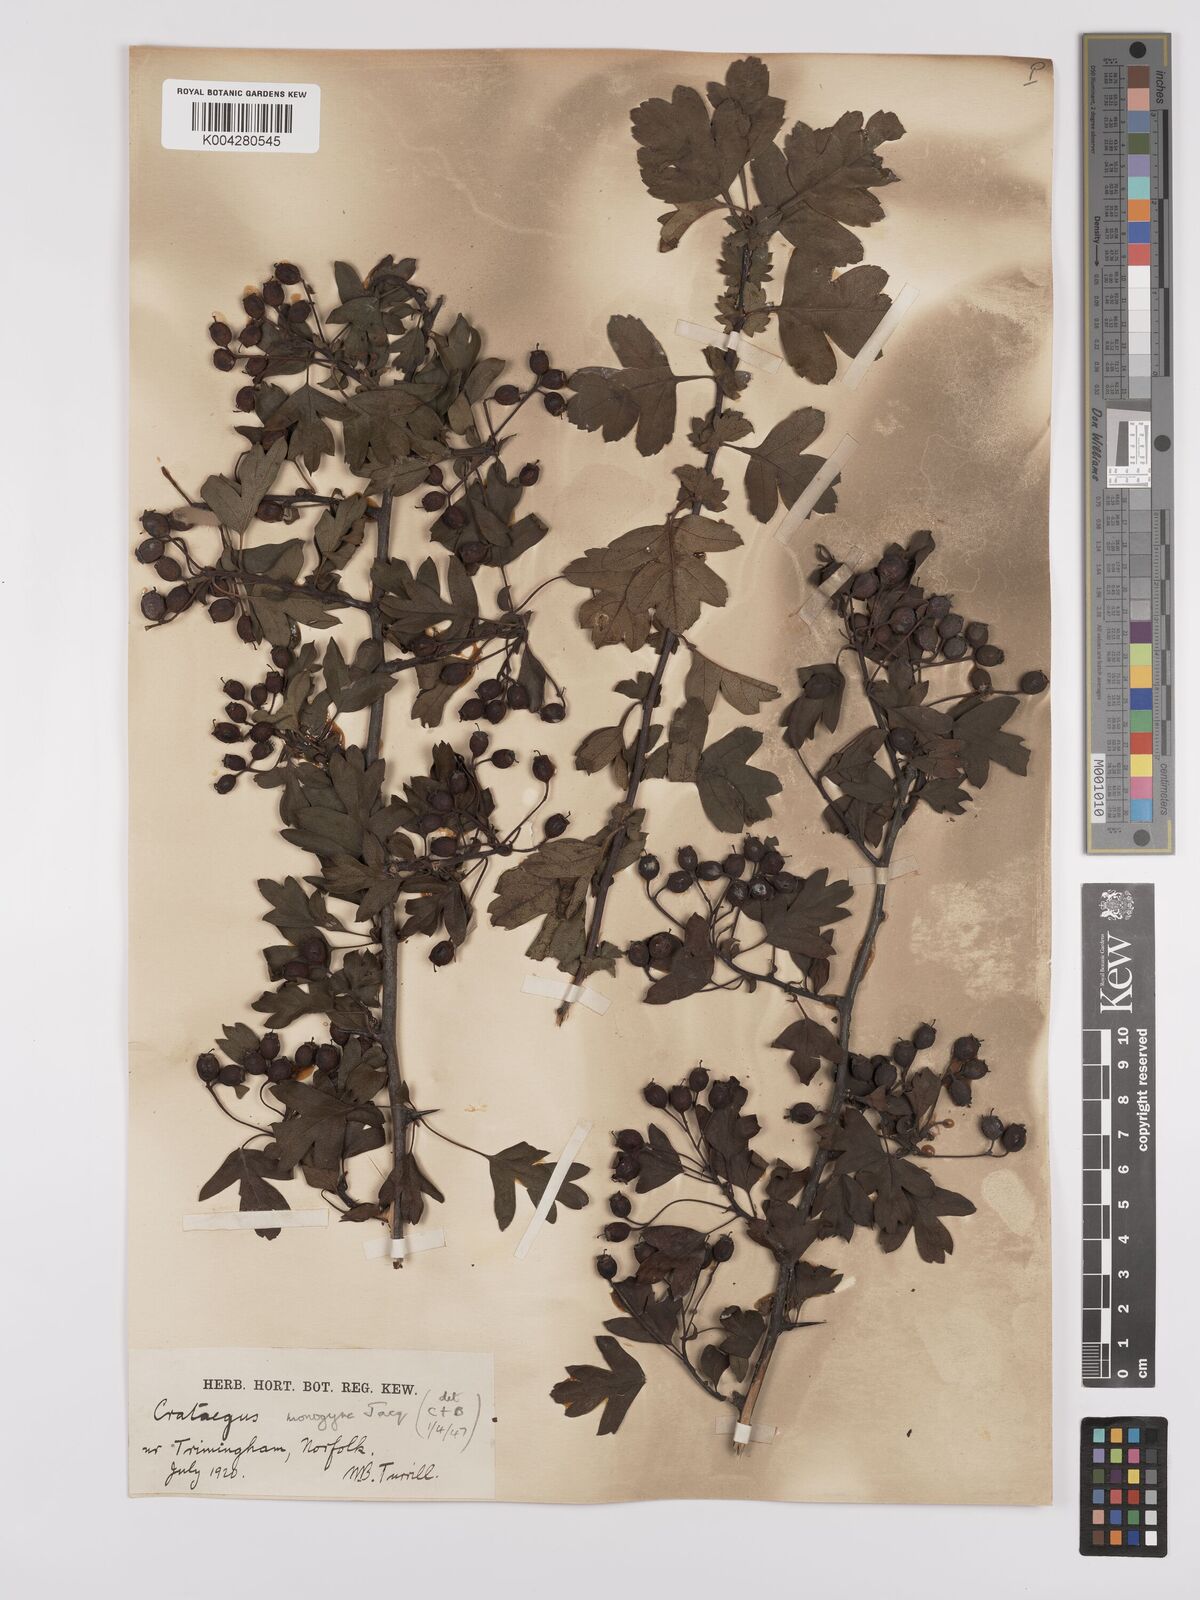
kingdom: Plantae
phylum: Tracheophyta
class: Magnoliopsida
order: Rosales
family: Rosaceae
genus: Crataegus
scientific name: Crataegus monogyna
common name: Hawthorn
